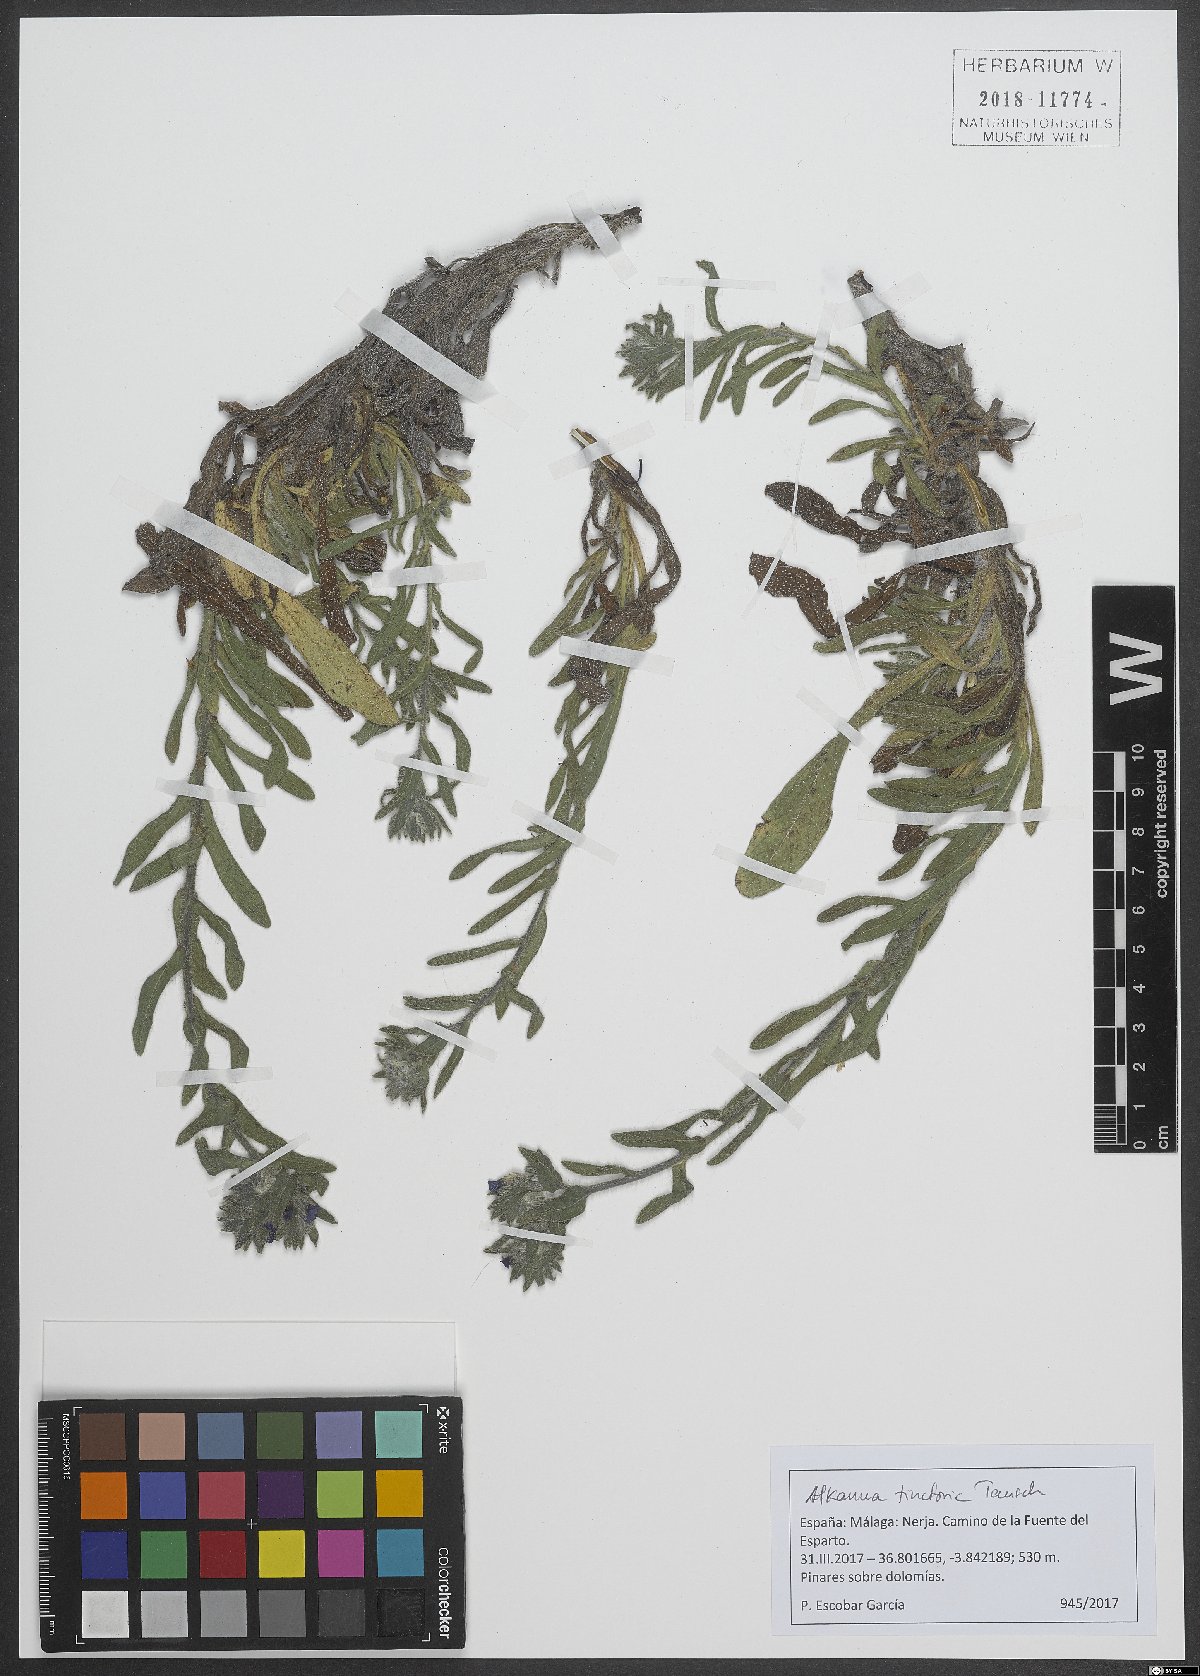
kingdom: Plantae
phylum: Tracheophyta
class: Magnoliopsida
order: Boraginales
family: Boraginaceae
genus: Alkanna
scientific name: Alkanna tinctoria
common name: Dyer's-alkanet
